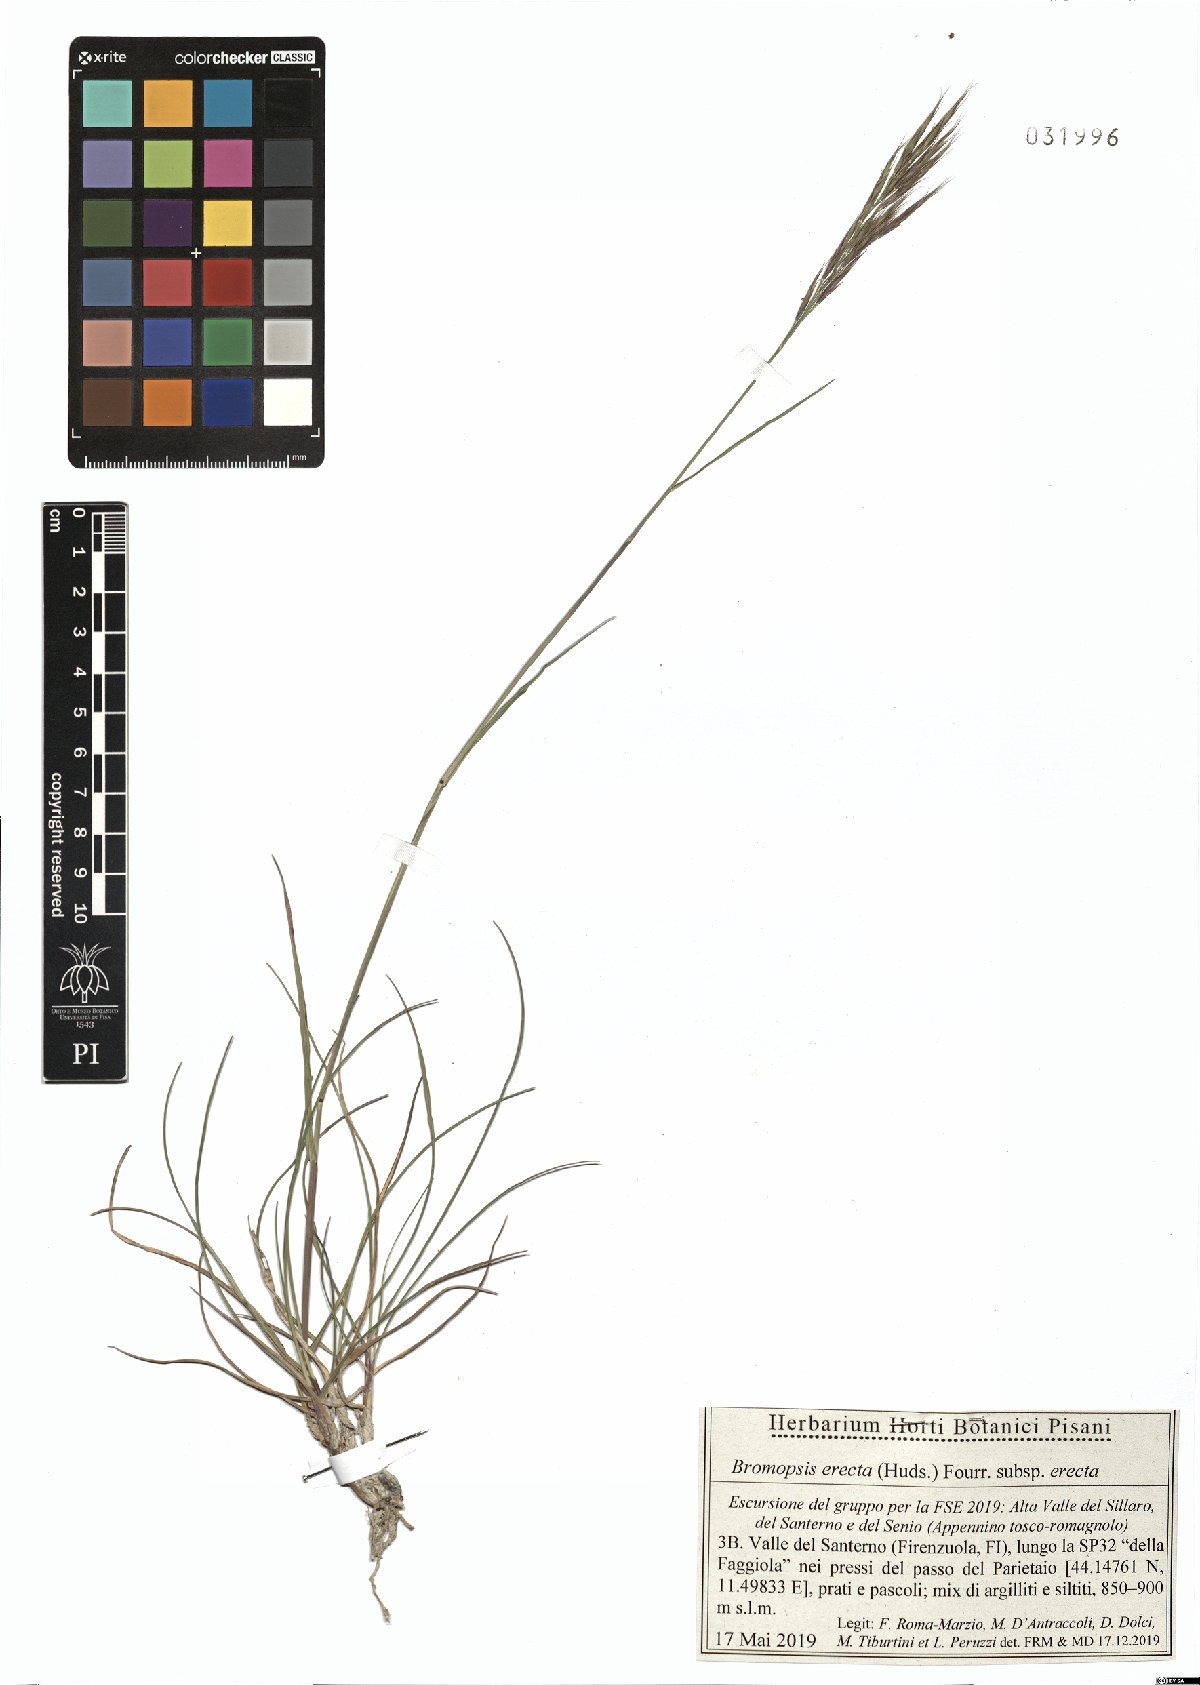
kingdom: Plantae
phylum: Tracheophyta
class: Liliopsida
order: Poales
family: Poaceae
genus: Bromus
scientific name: Bromus erectus
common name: Erect brome
